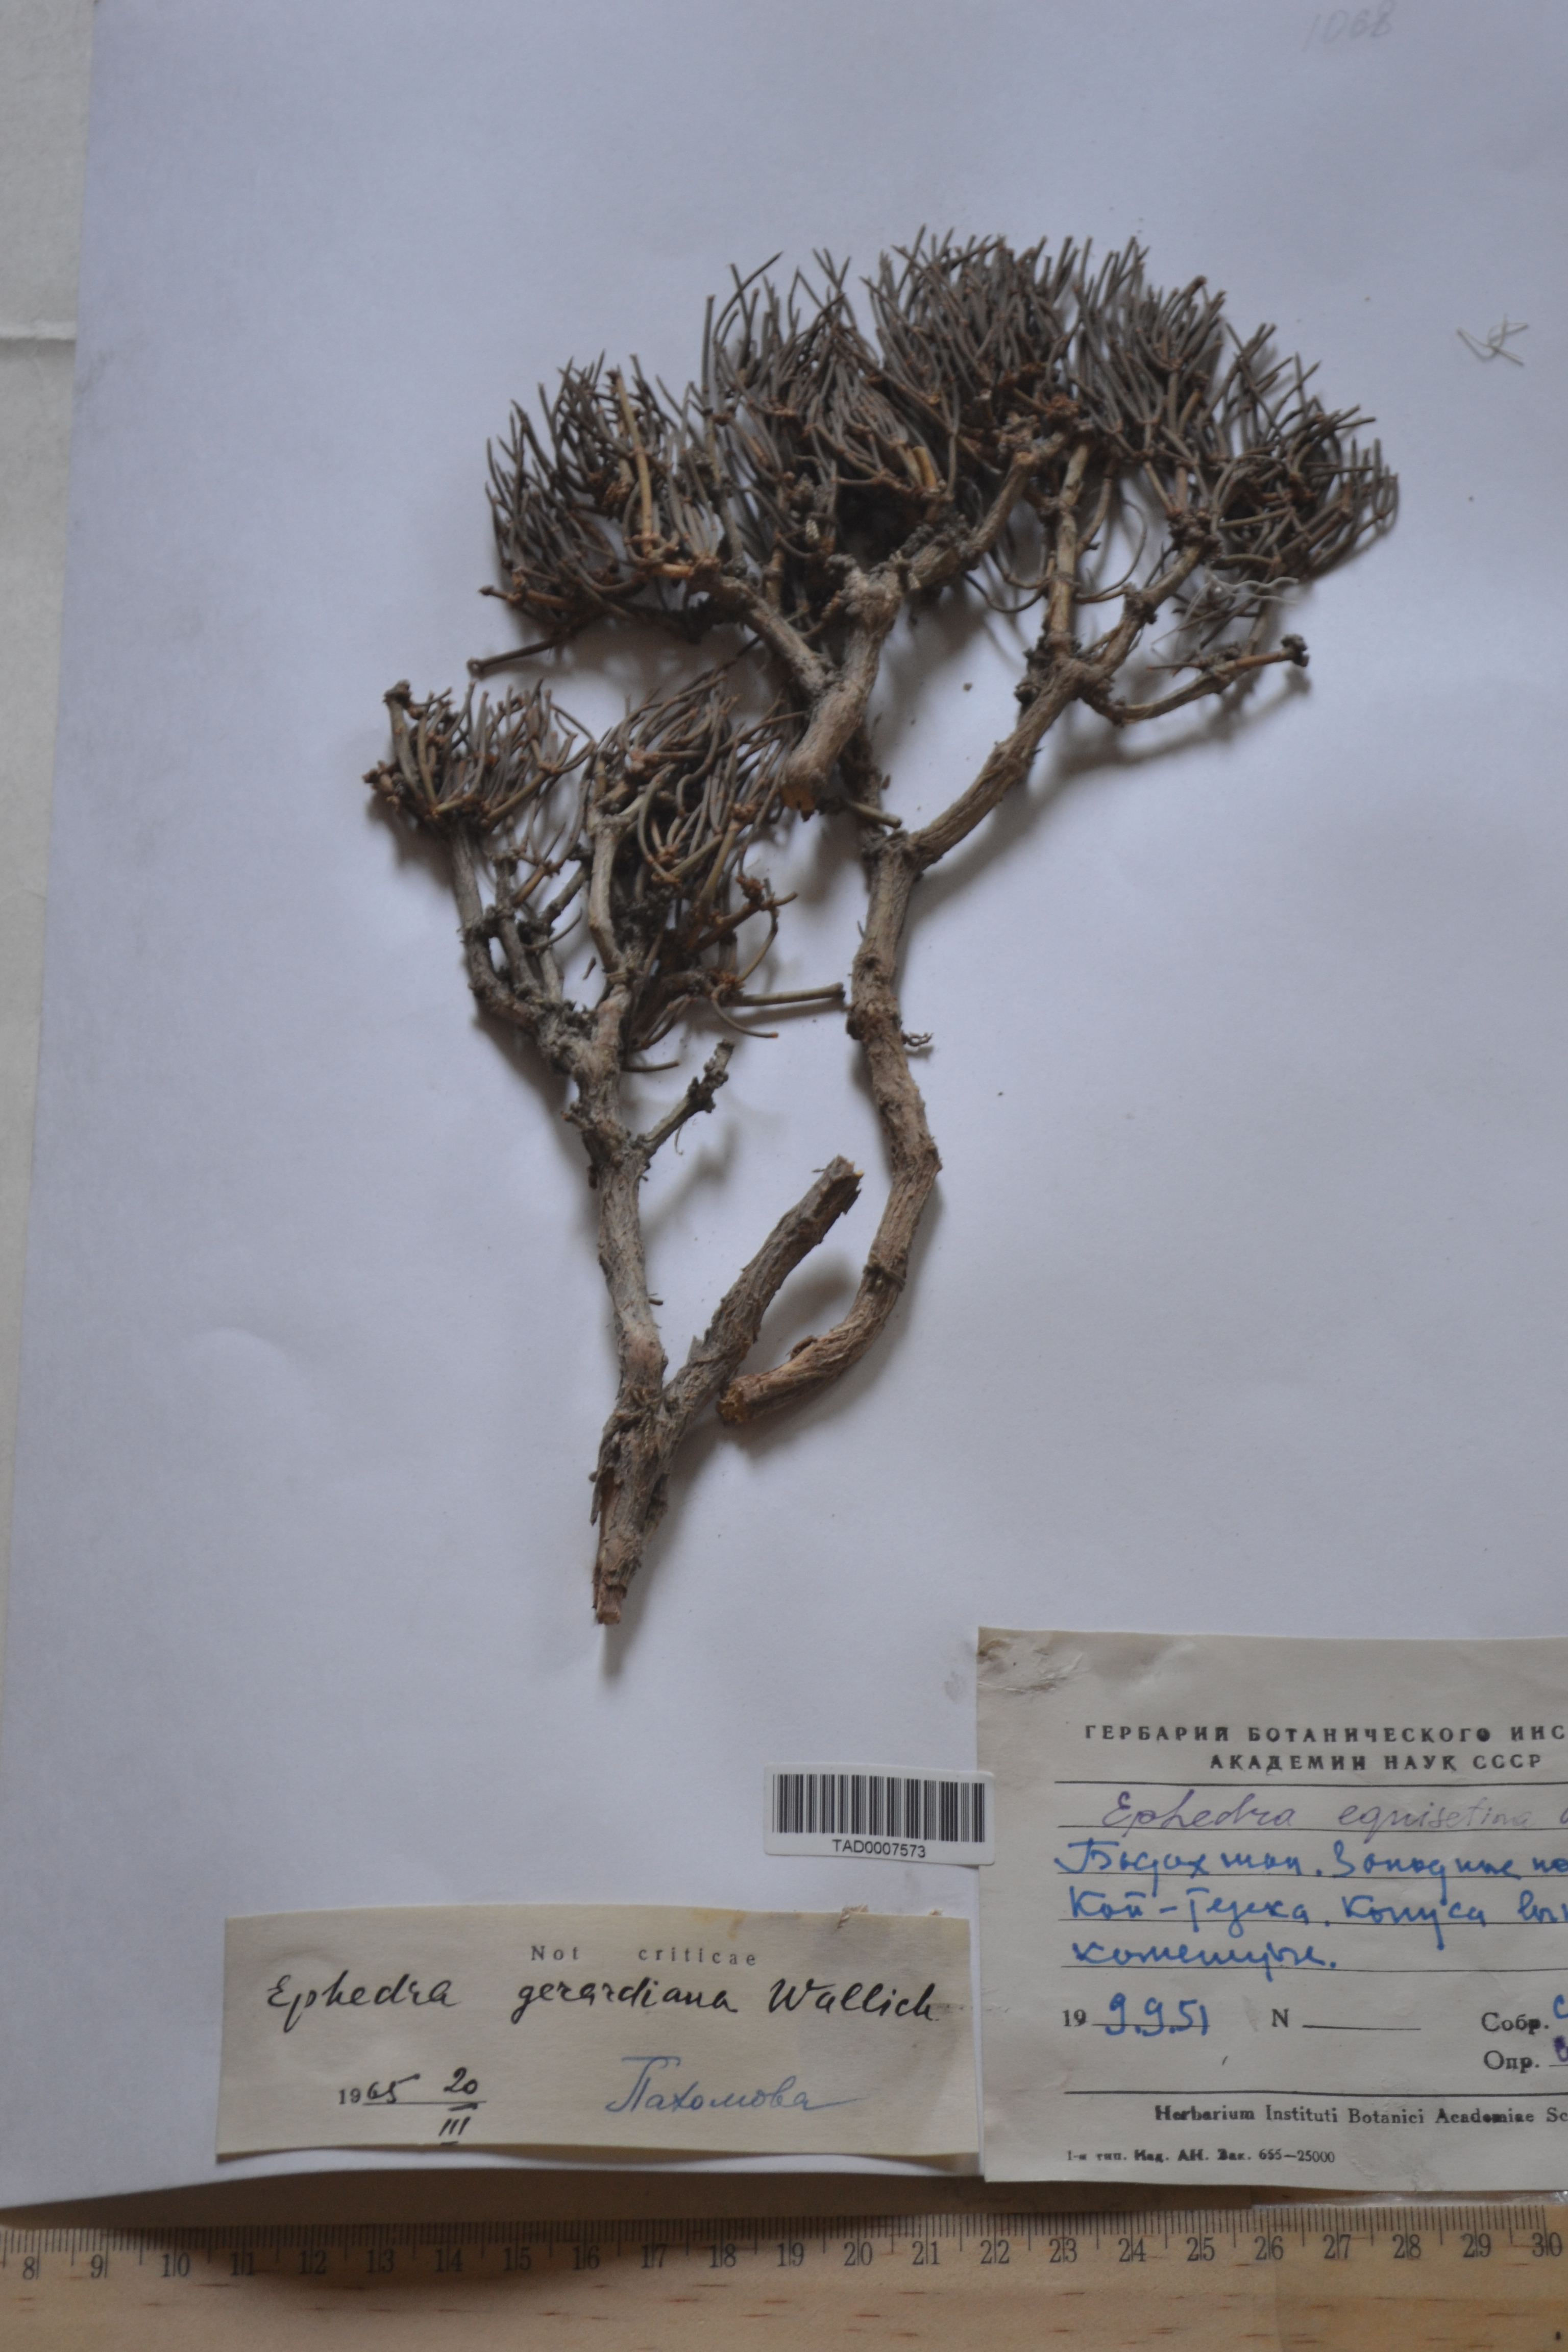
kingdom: Plantae
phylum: Tracheophyta
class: Gnetopsida
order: Ephedrales
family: Ephedraceae
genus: Ephedra
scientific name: Ephedra gerardiana
